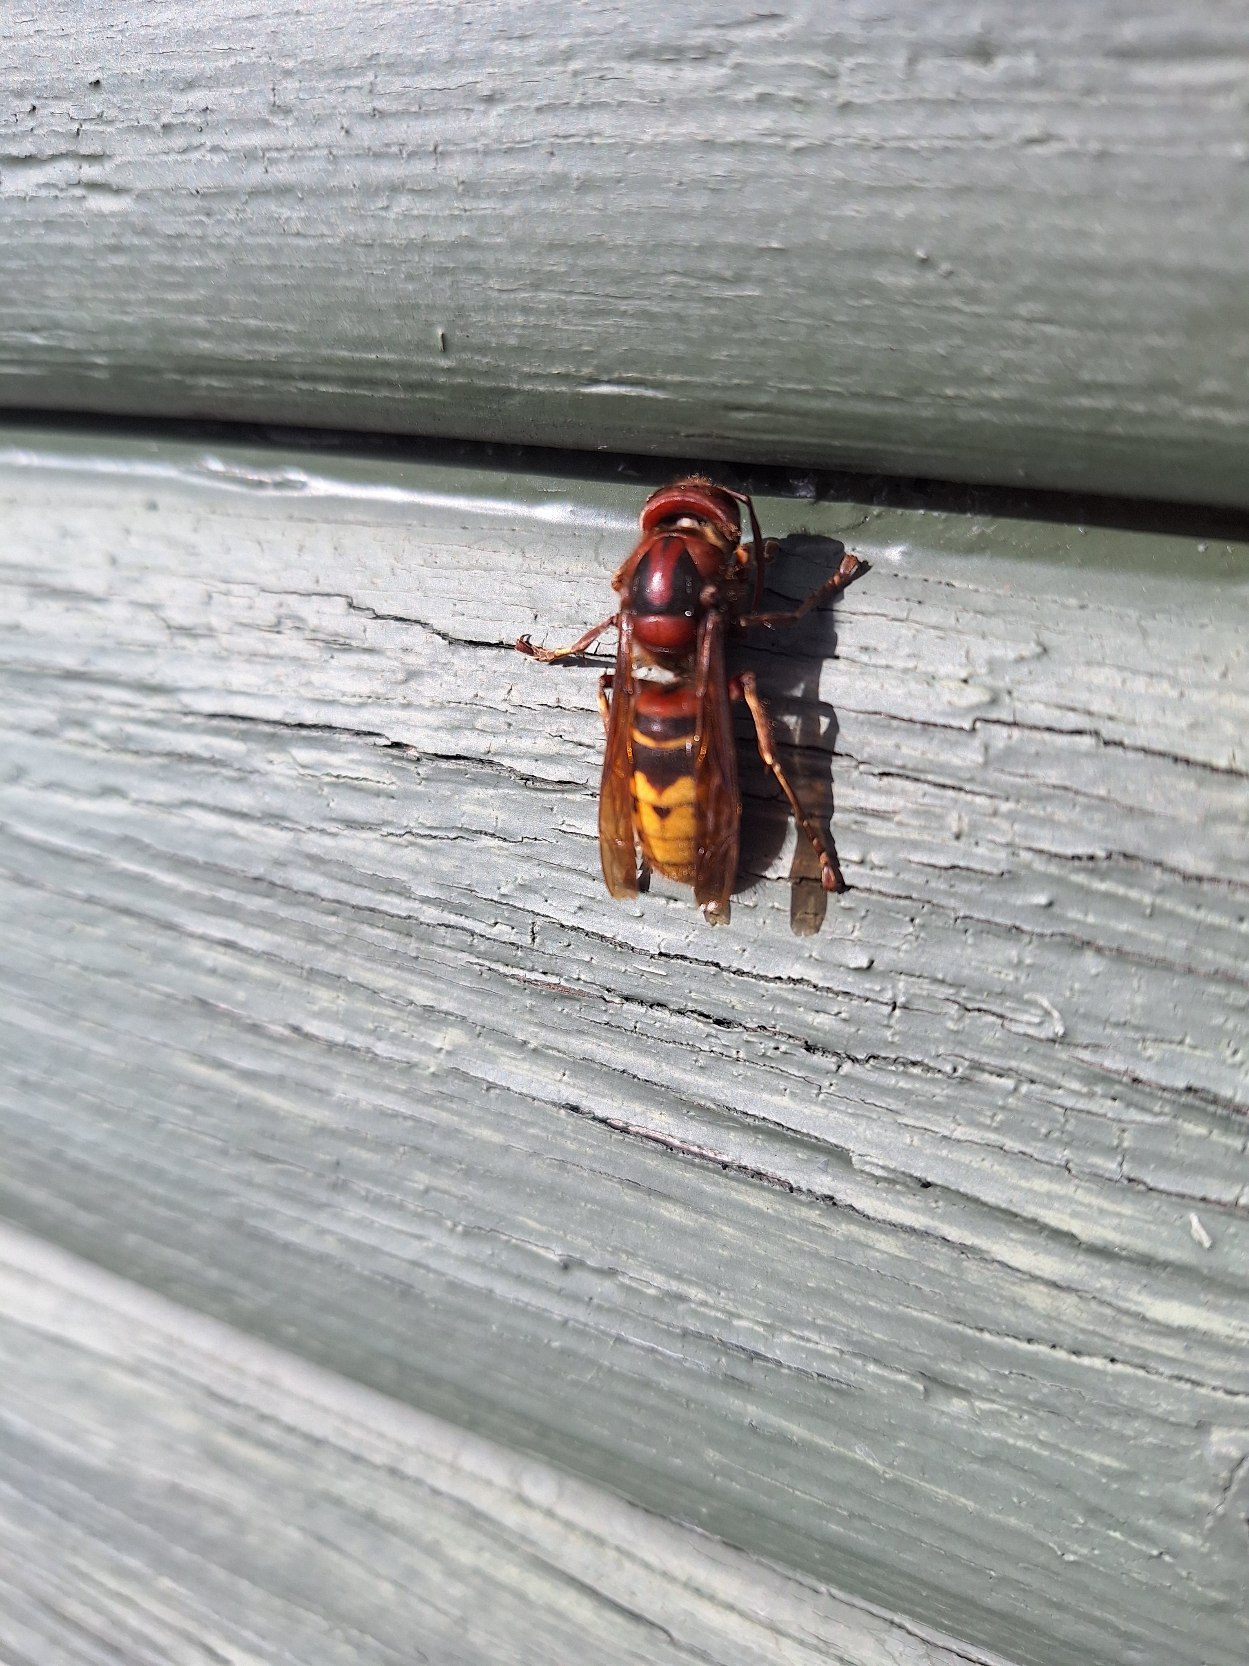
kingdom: Animalia
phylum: Arthropoda
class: Insecta
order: Hymenoptera
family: Vespidae
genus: Vespa
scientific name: Vespa crabro
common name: Stor gedehams
